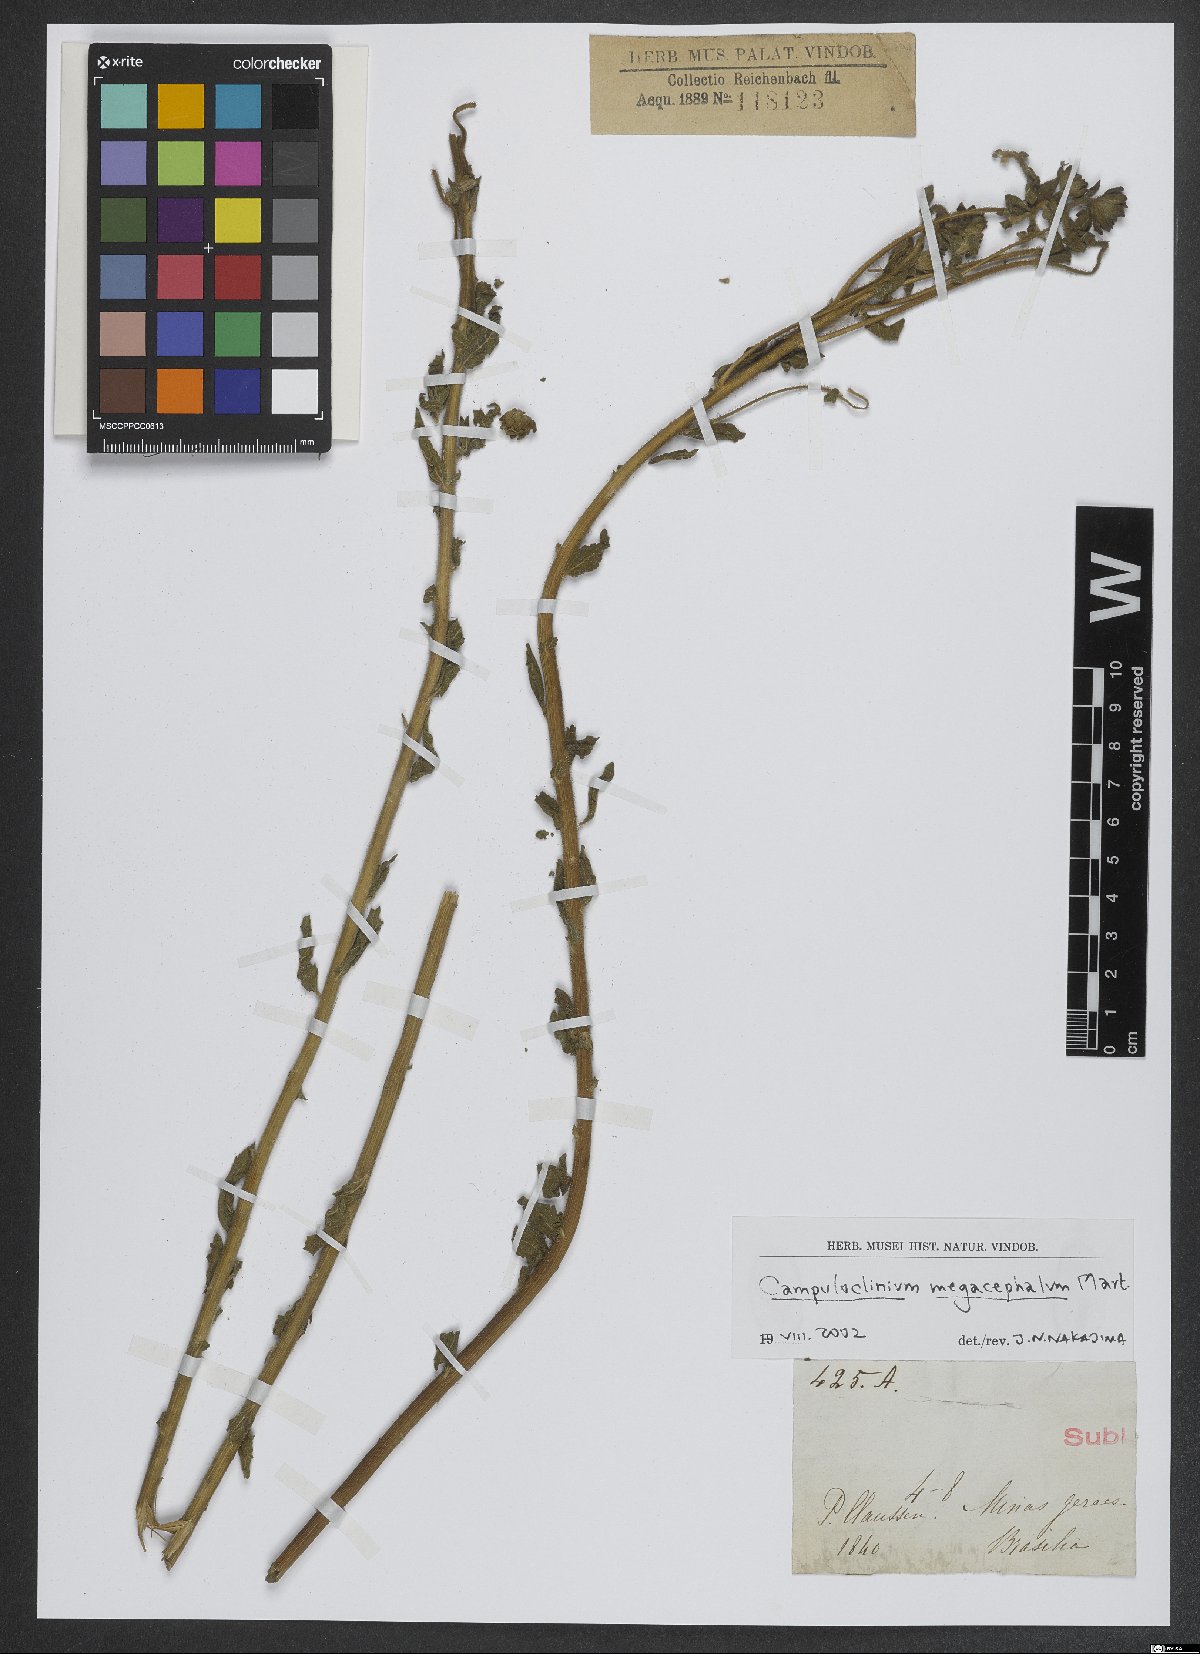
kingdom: Plantae
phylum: Tracheophyta
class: Magnoliopsida
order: Asterales
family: Asteraceae
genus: Campuloclinium
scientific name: Campuloclinium megacephalum
